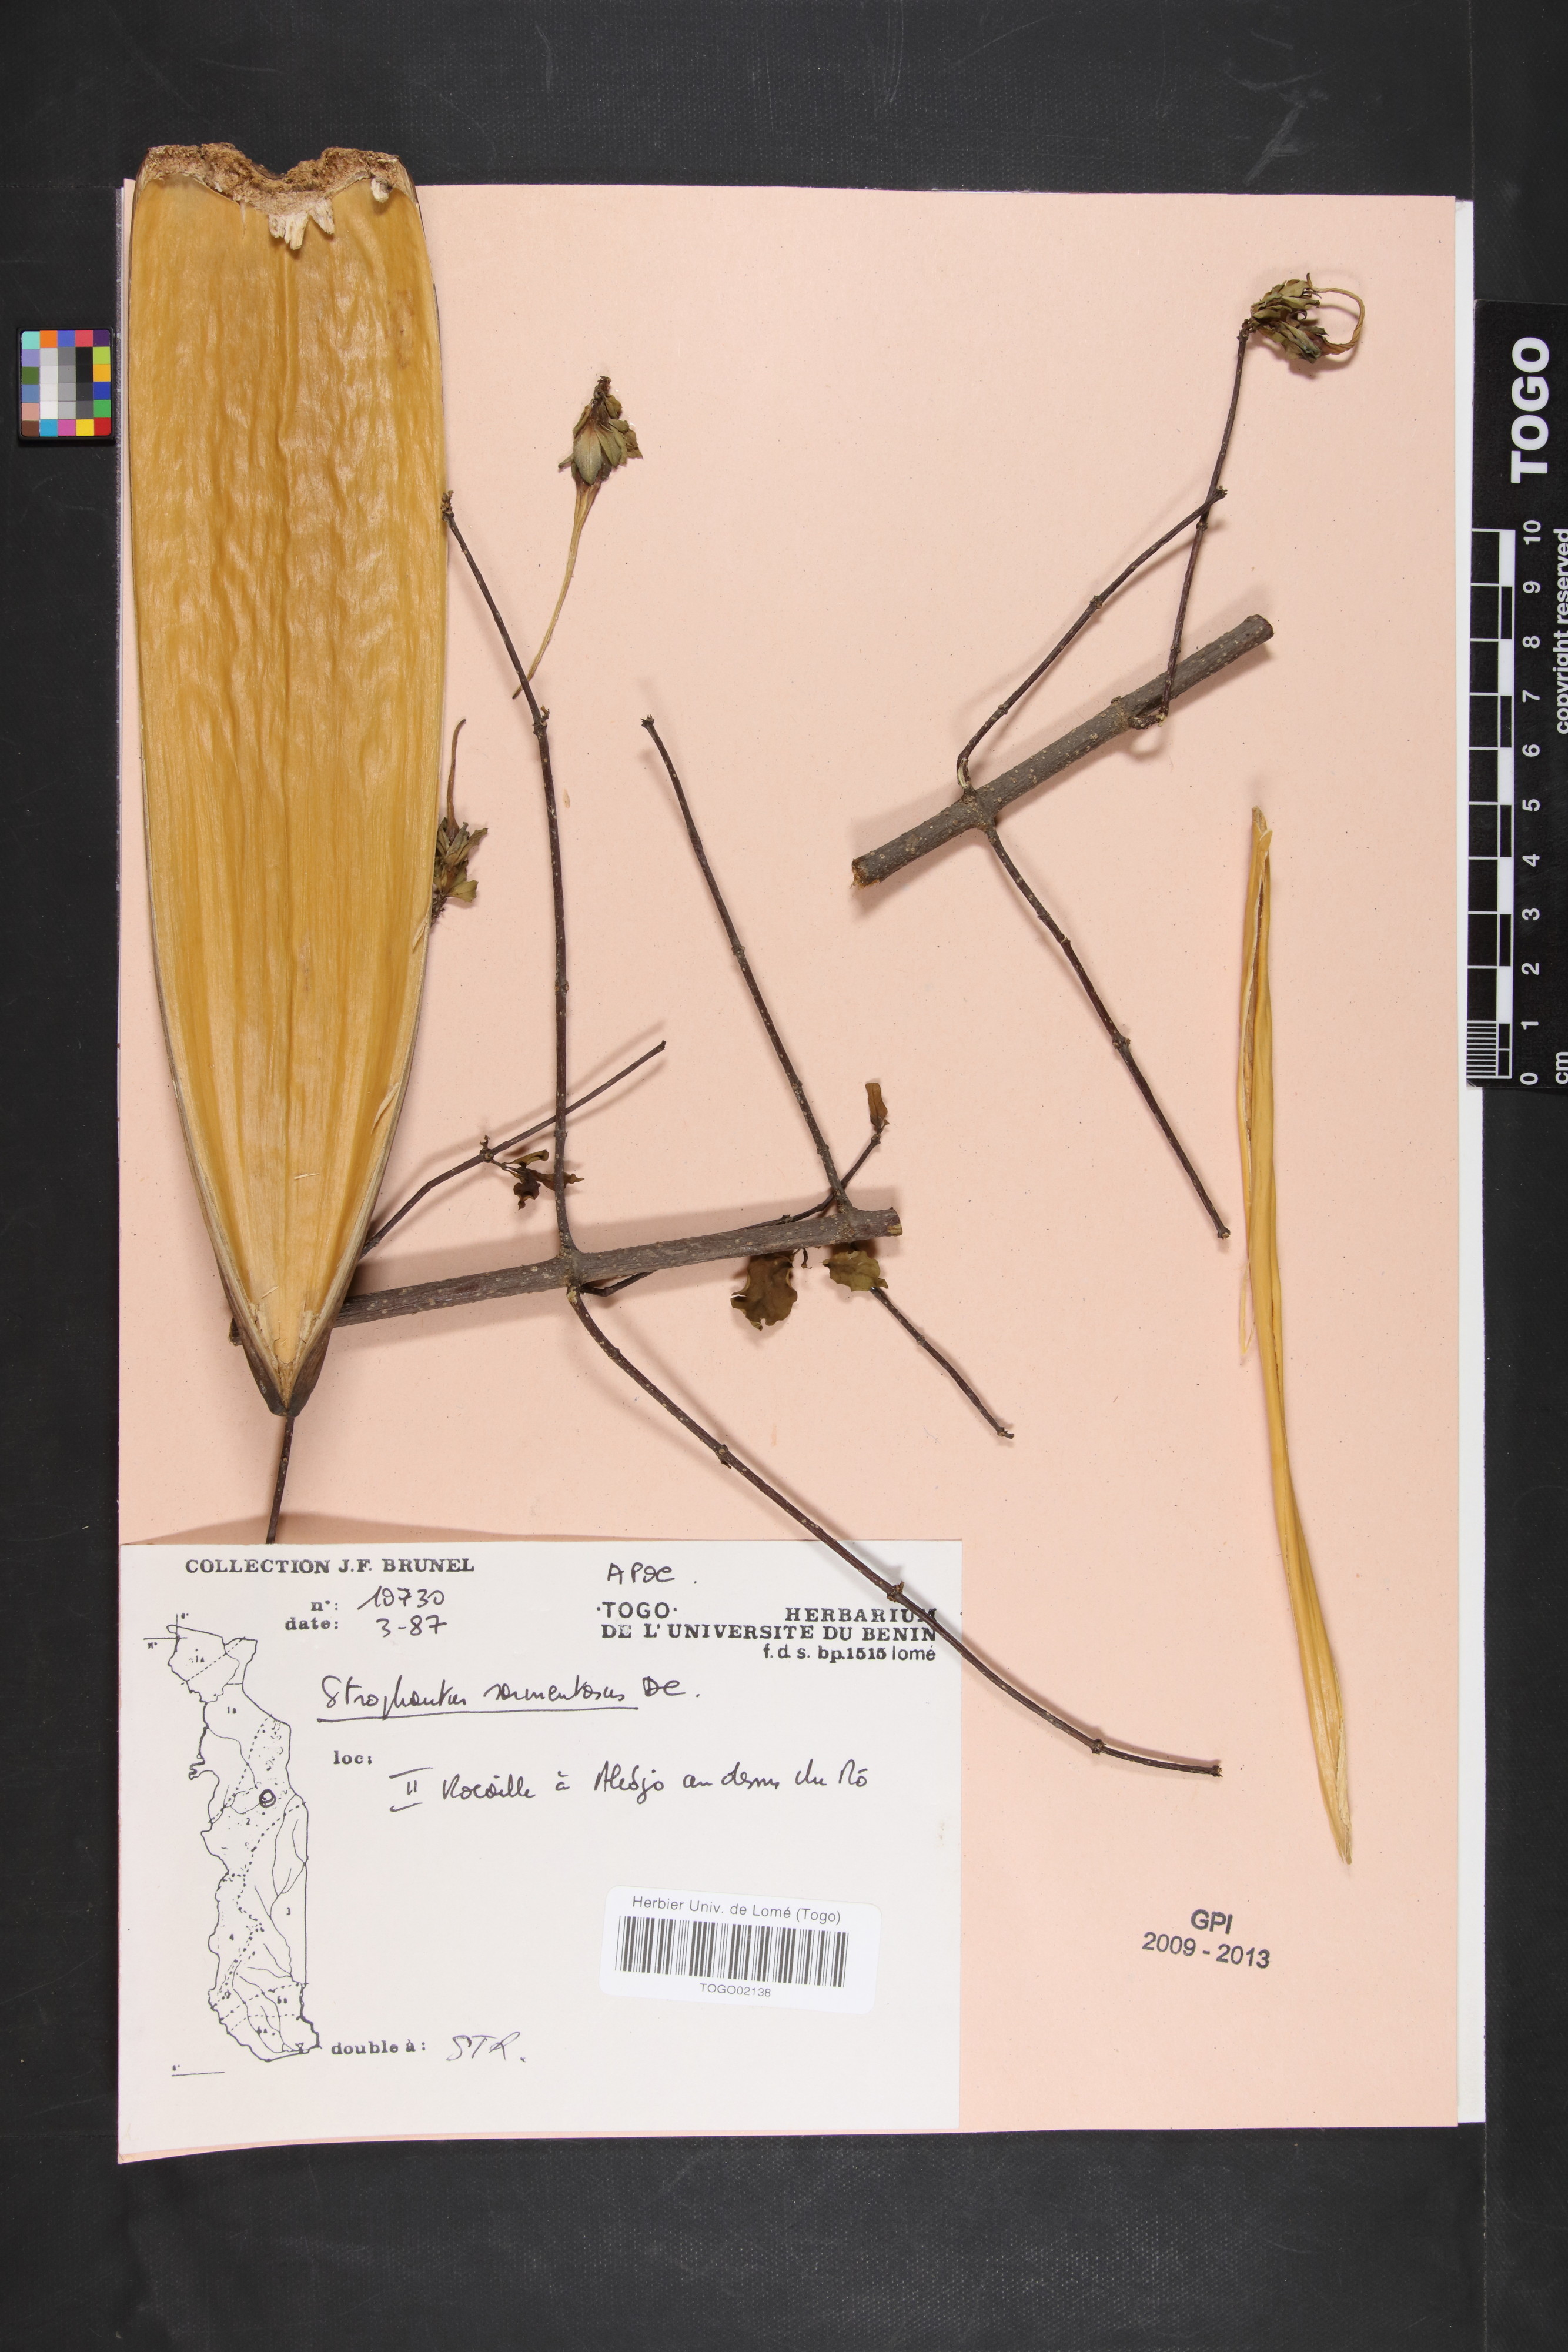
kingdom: Plantae
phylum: Tracheophyta
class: Magnoliopsida
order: Gentianales
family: Apocynaceae
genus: Strophanthus
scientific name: Strophanthus sarmentosus
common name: Poison arrowvine
